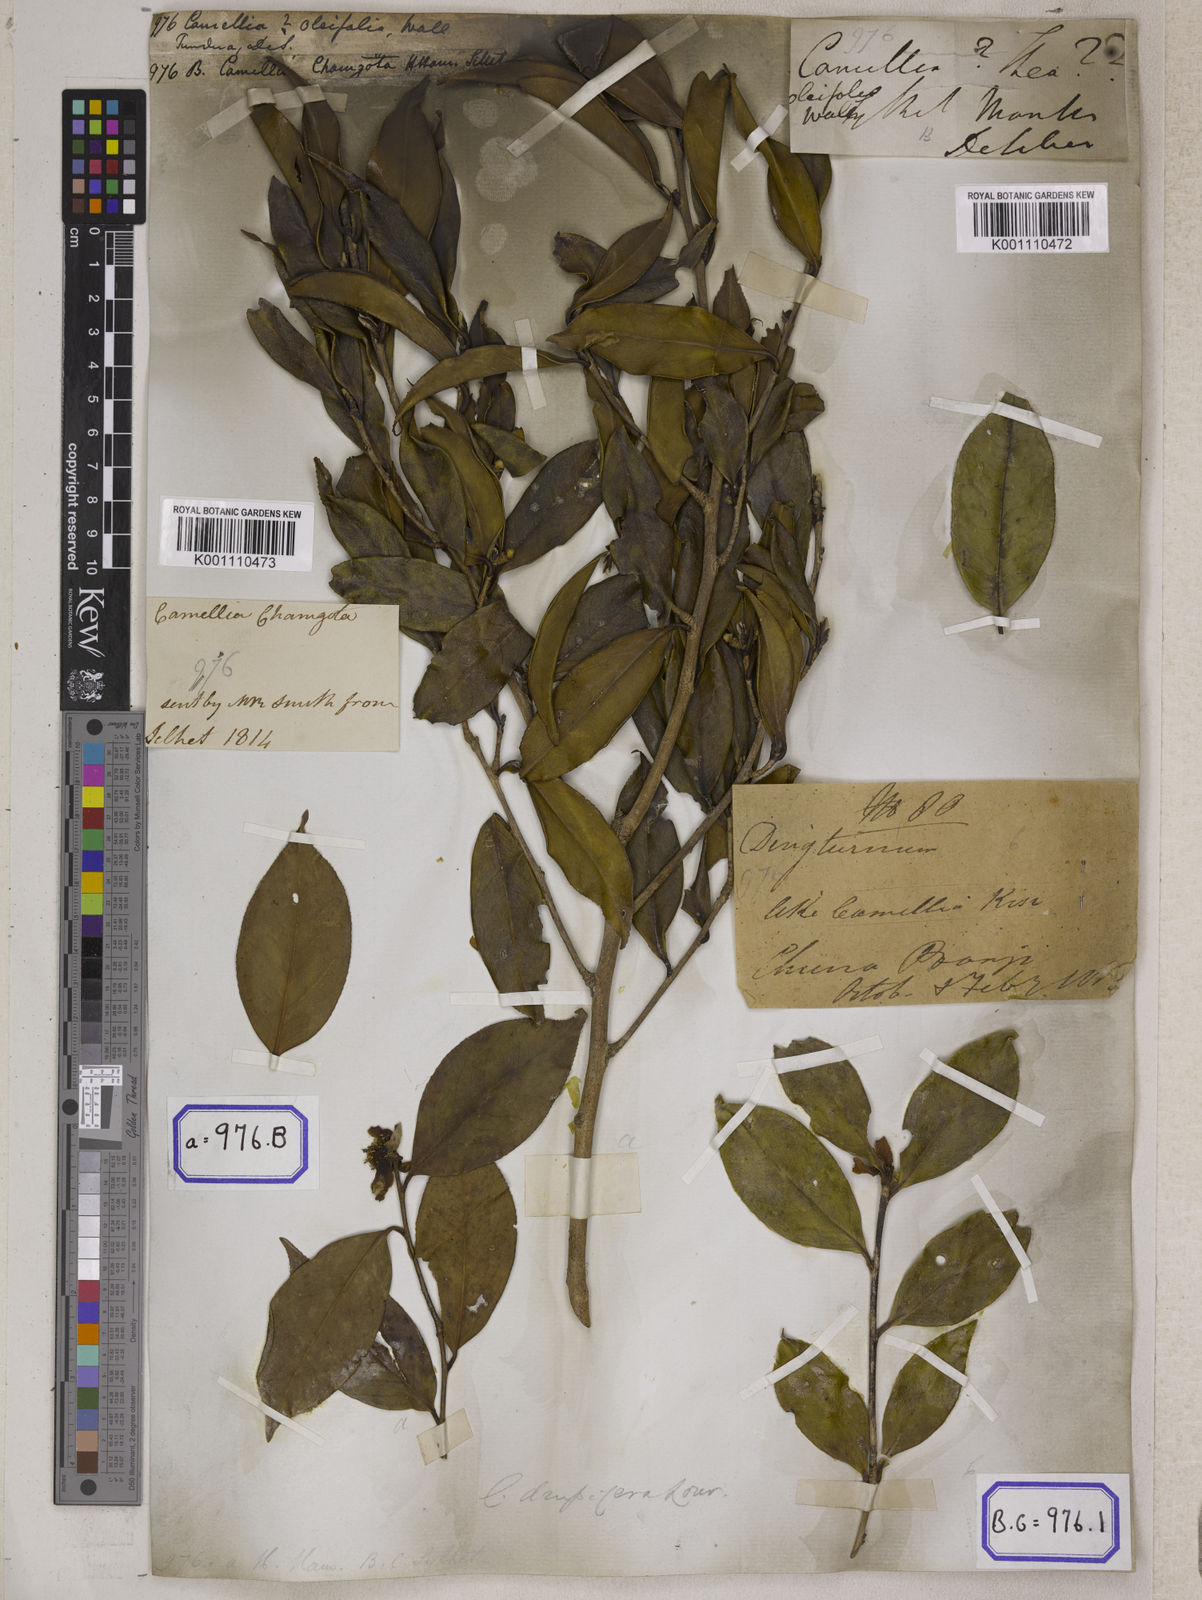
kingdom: Plantae
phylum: Tracheophyta
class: Magnoliopsida
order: Ericales
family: Theaceae
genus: Camellia
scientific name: Camellia
